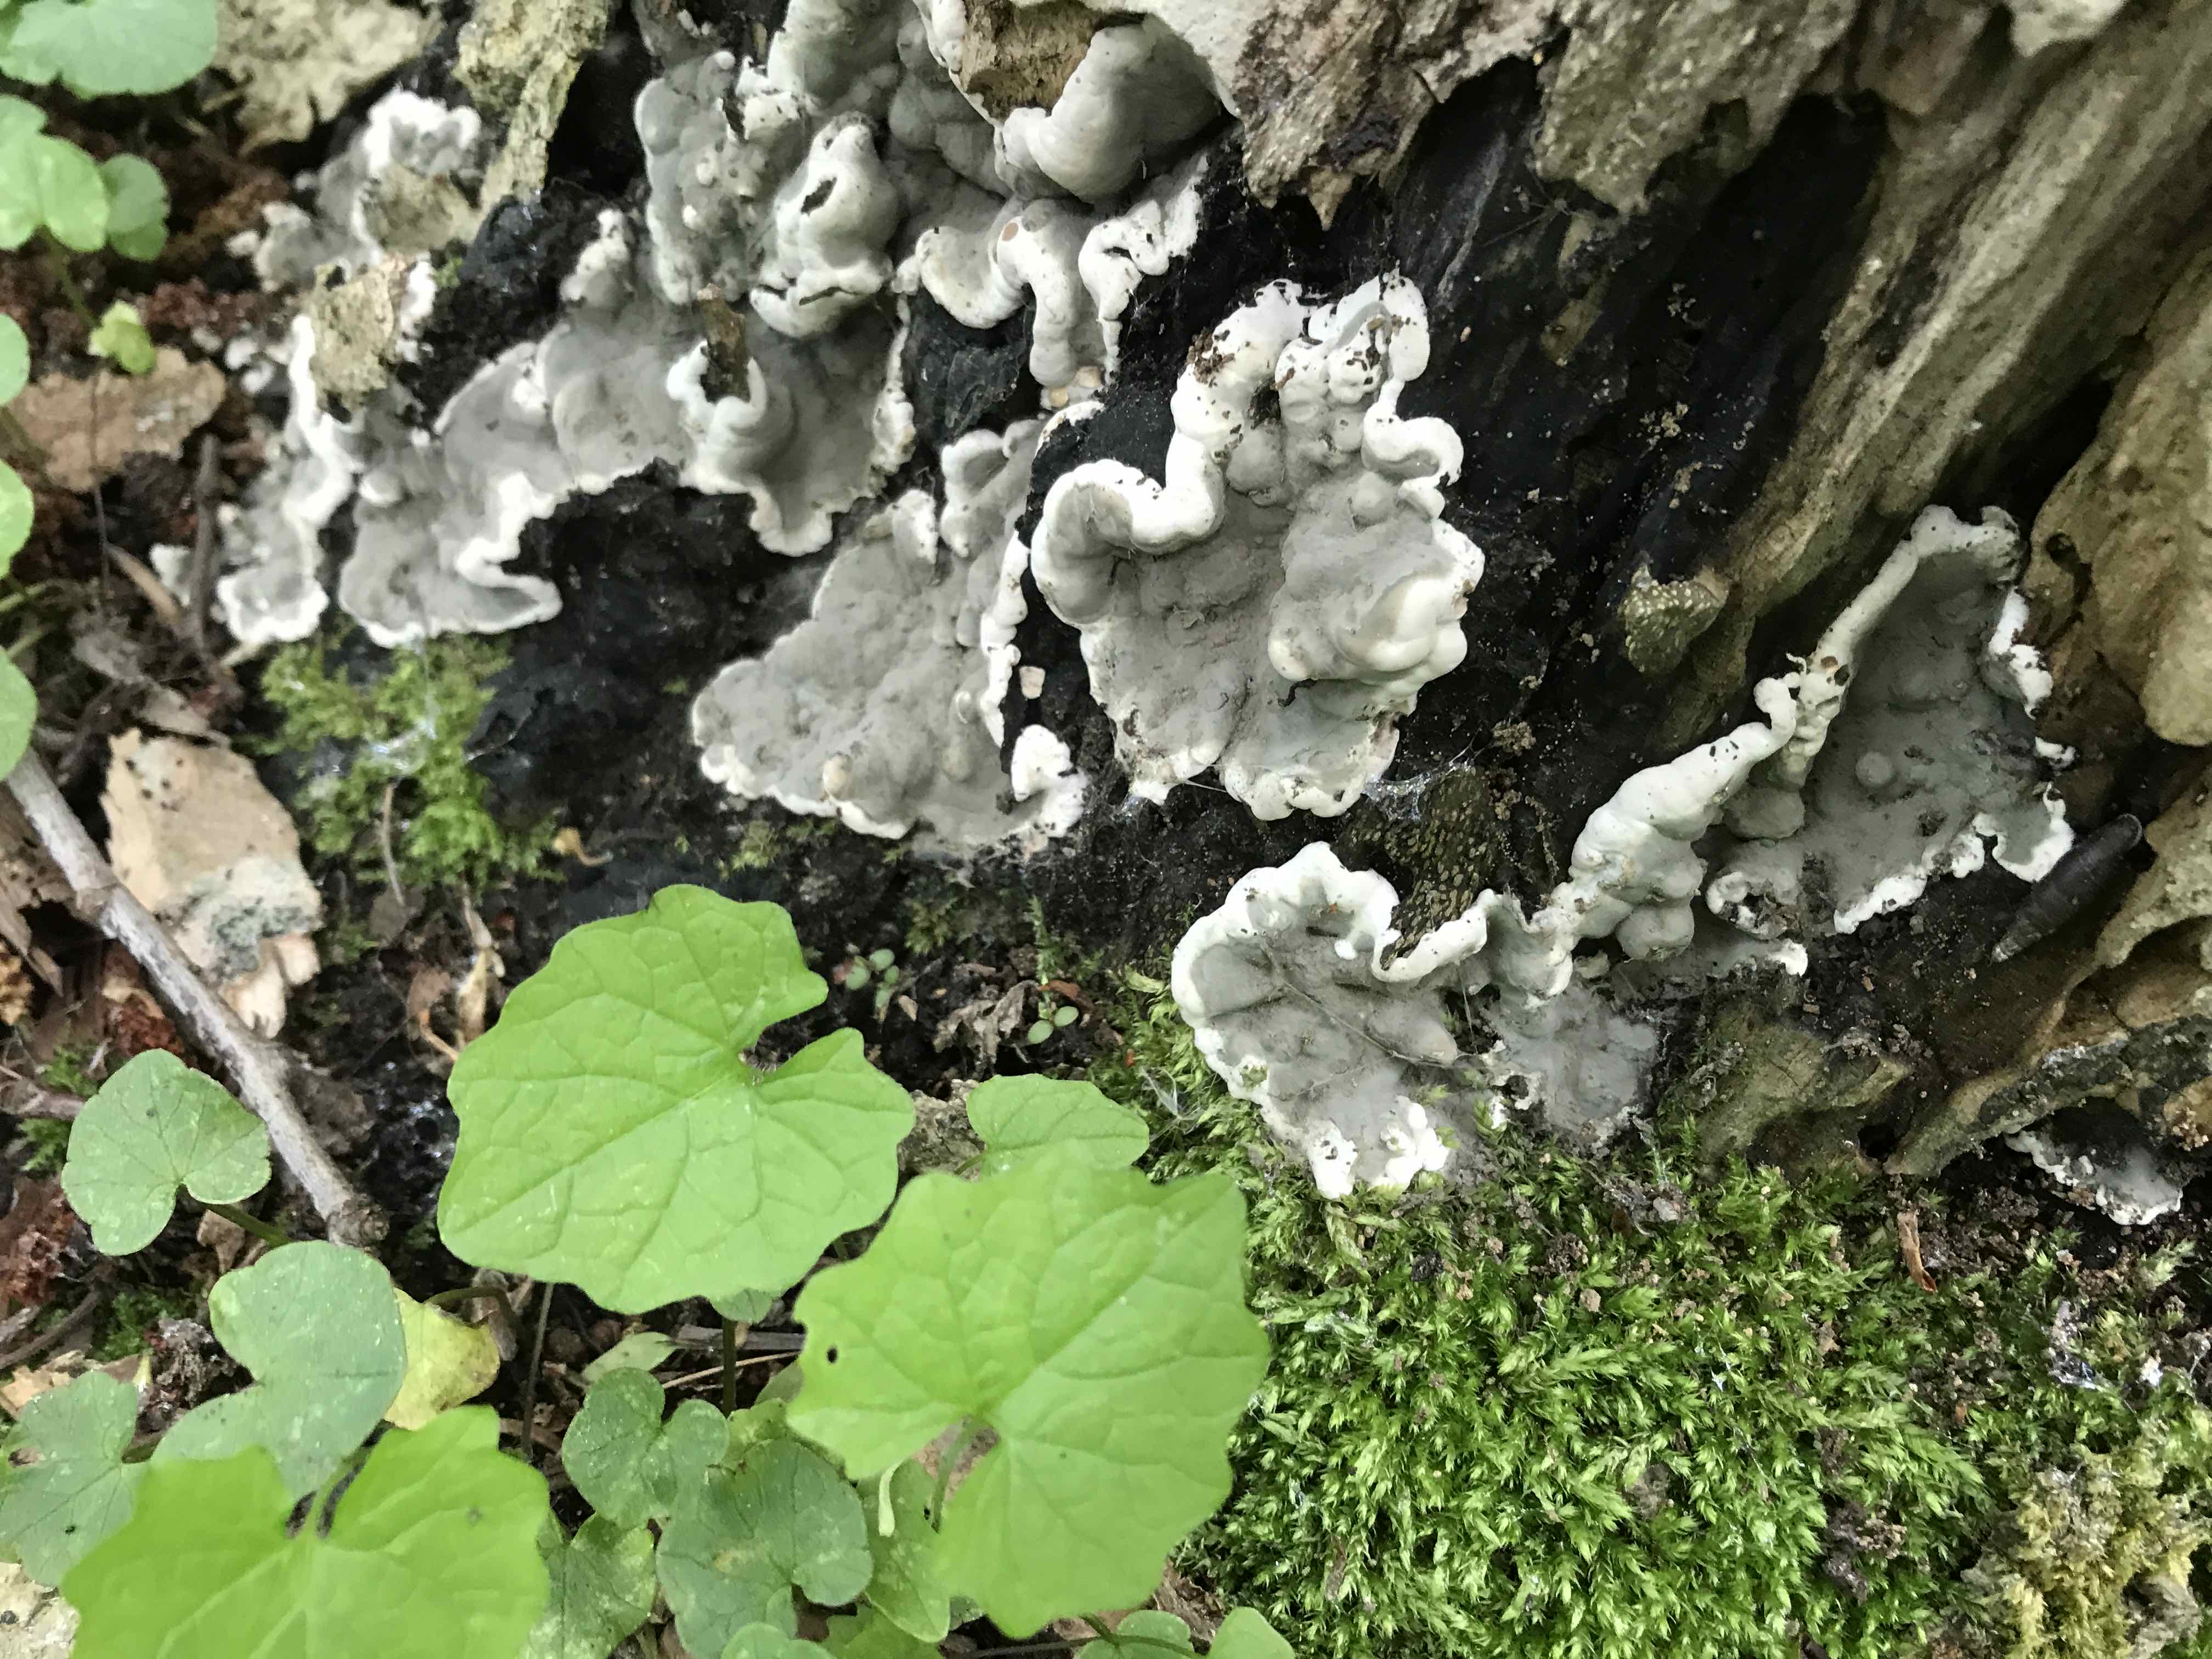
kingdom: Fungi
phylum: Ascomycota
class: Sordariomycetes
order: Xylariales
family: Xylariaceae
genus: Kretzschmaria
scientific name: Kretzschmaria deusta
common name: stor kulsvamp
